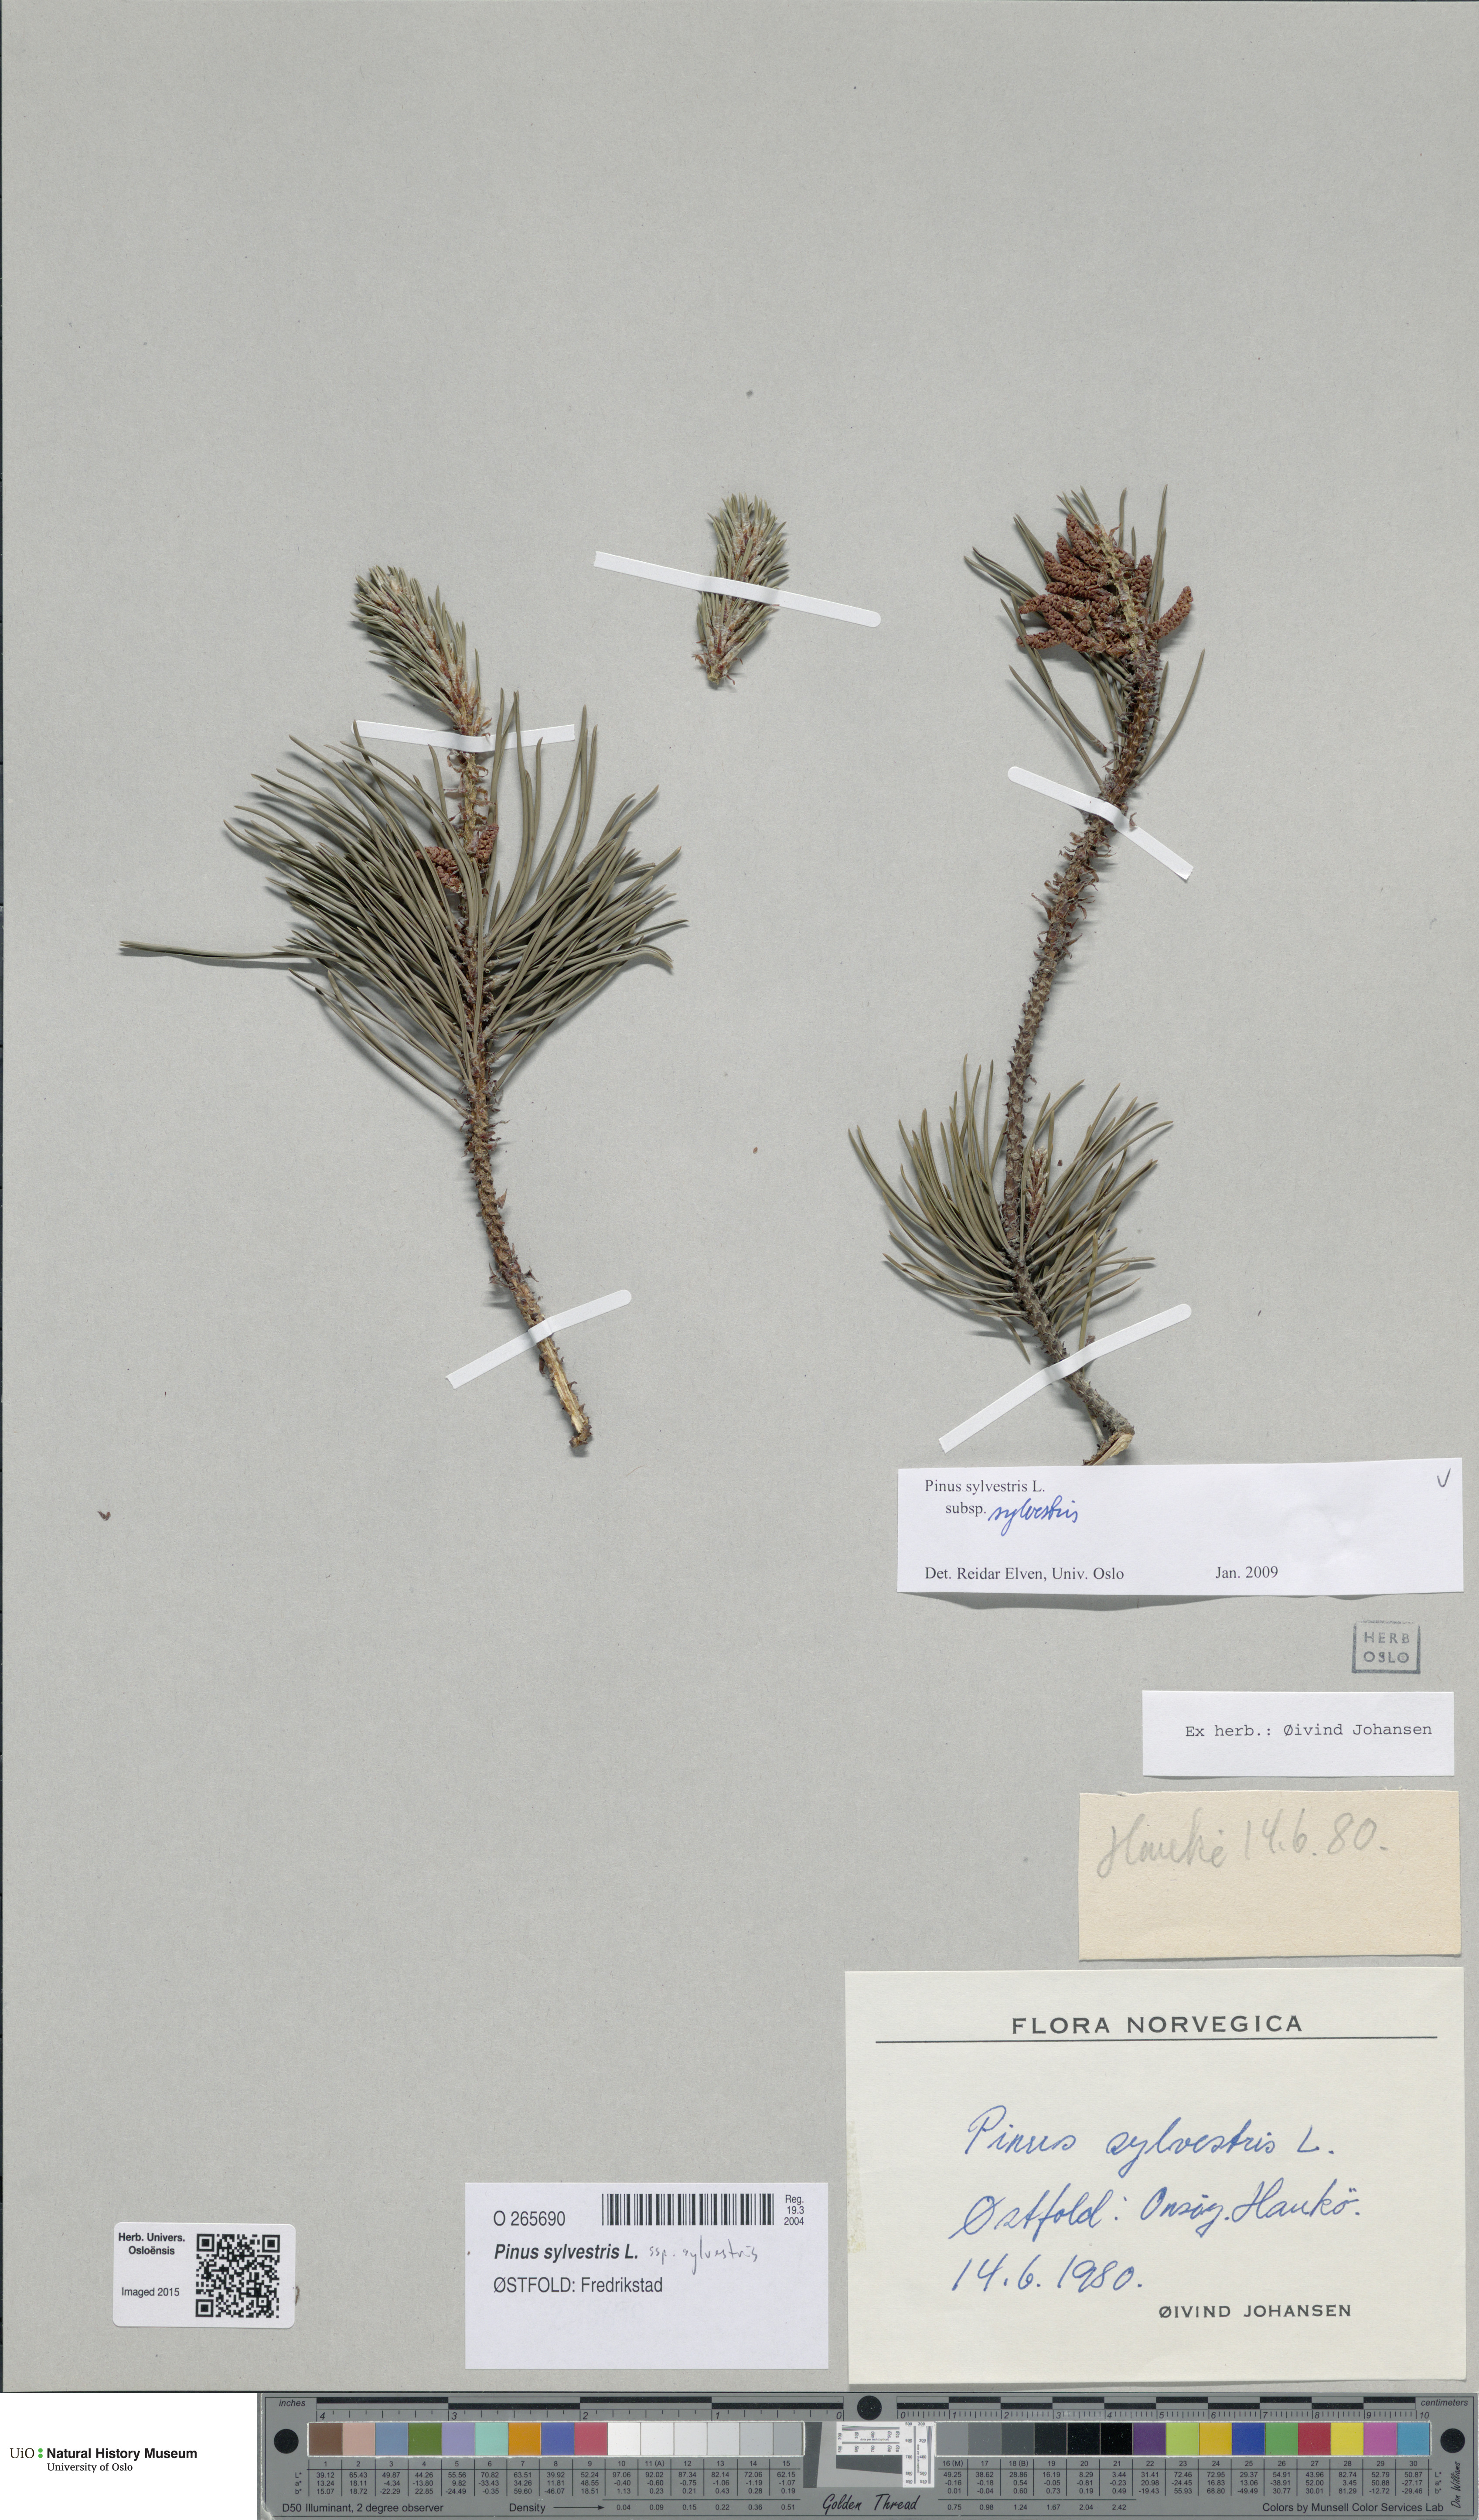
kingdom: Plantae
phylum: Tracheophyta
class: Pinopsida
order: Pinales
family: Pinaceae
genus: Pinus
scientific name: Pinus sylvestris
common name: Scots pine
